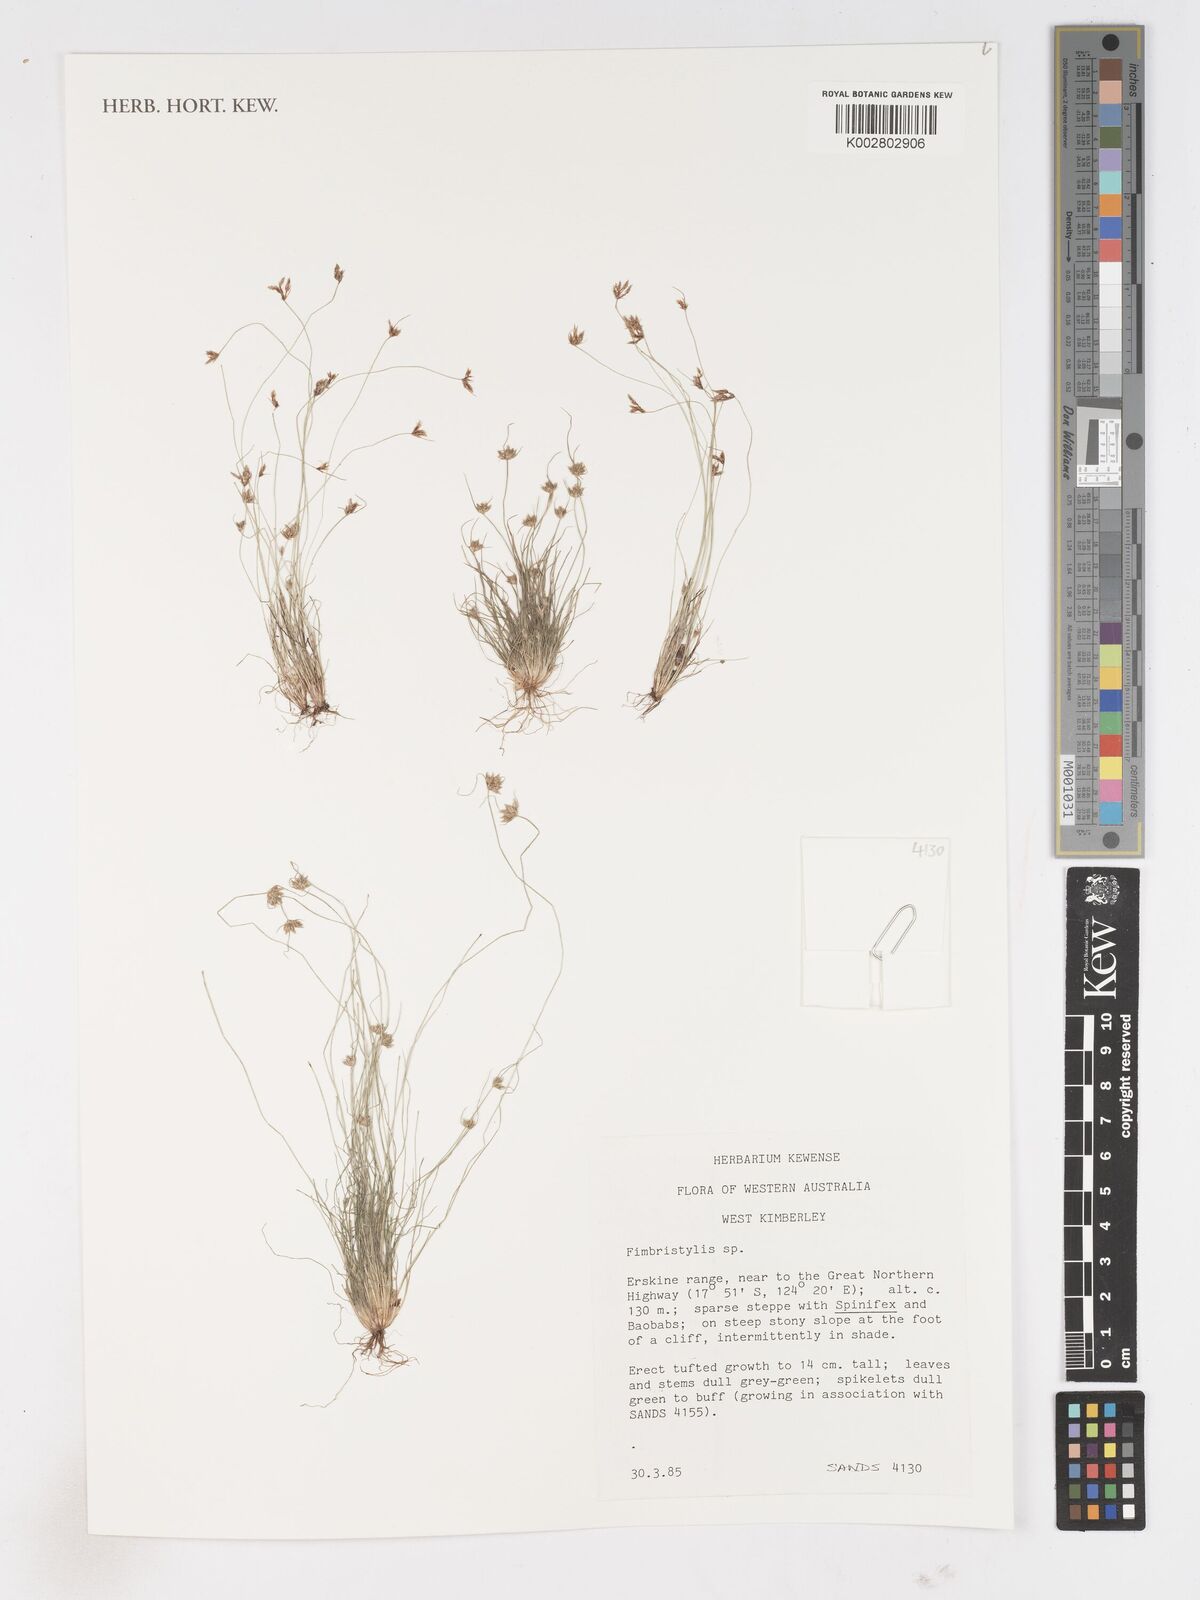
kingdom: Plantae
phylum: Tracheophyta
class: Liliopsida
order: Poales
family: Cyperaceae
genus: Fimbristylis
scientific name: Fimbristylis
